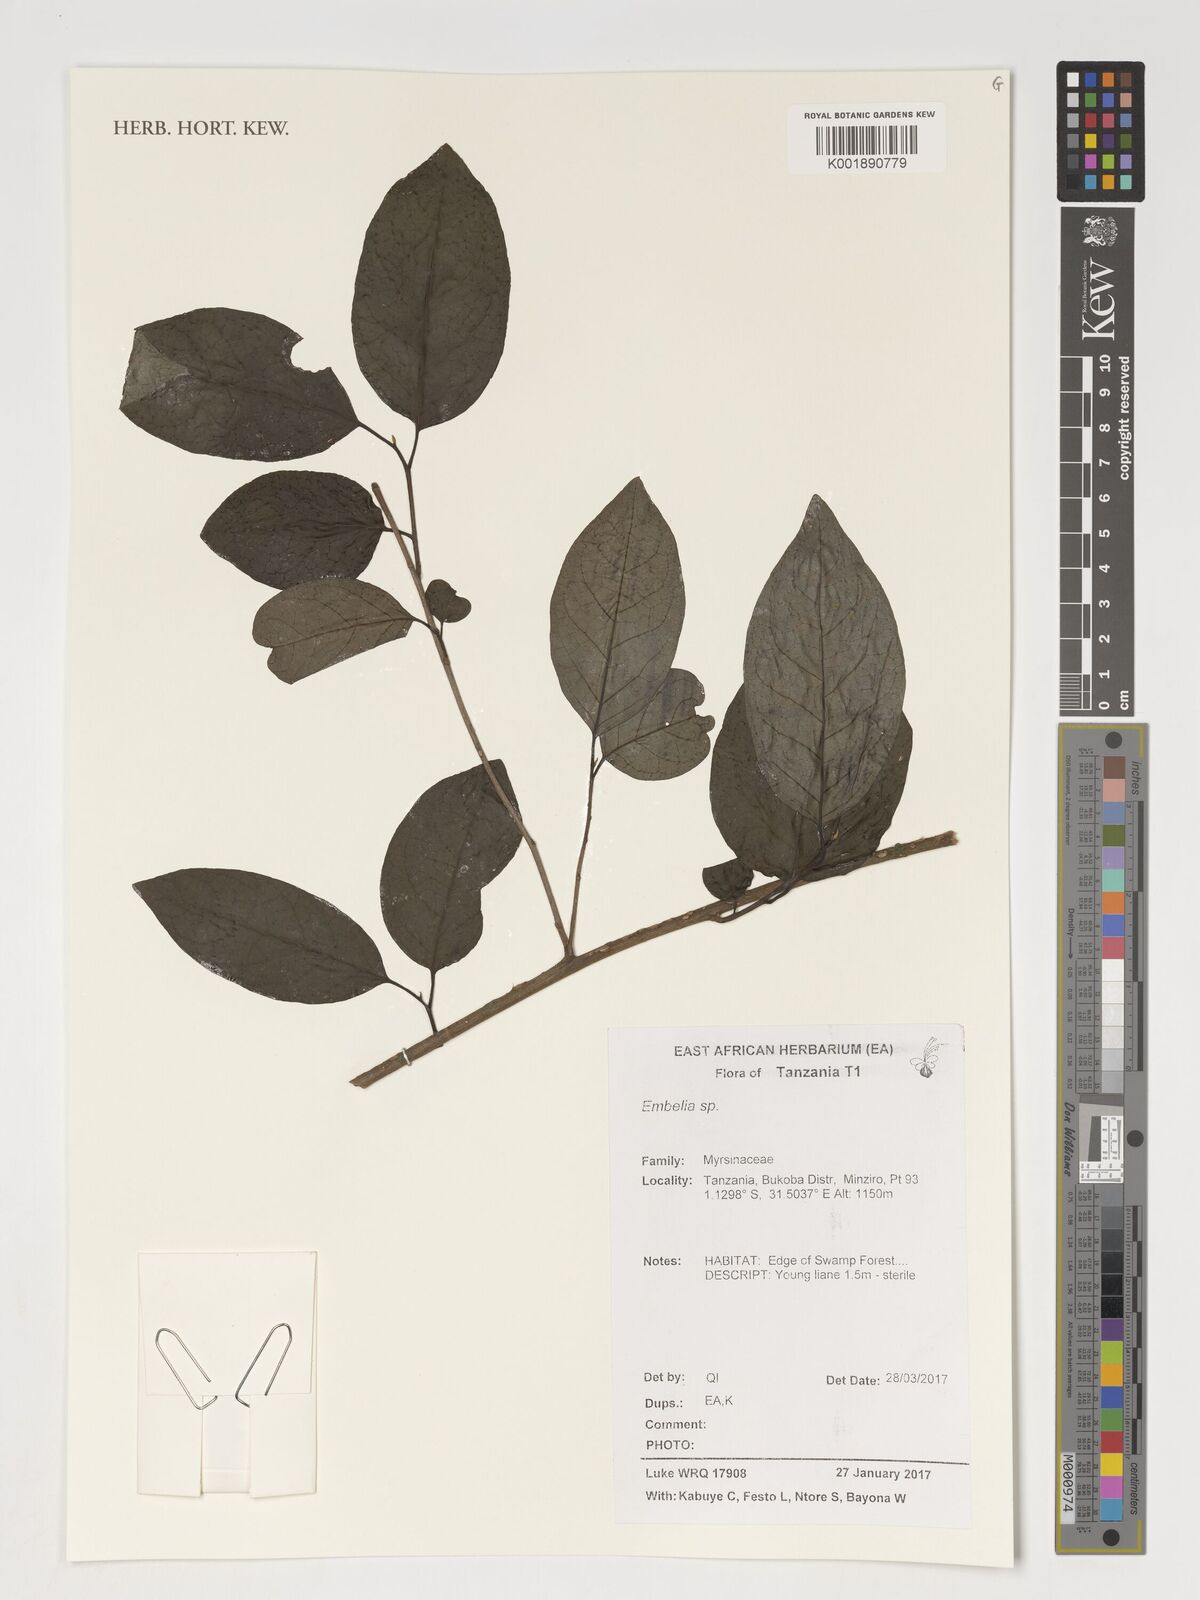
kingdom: Plantae
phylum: Tracheophyta
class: Magnoliopsida
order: Ericales
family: Primulaceae
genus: Embelia
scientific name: Embelia
